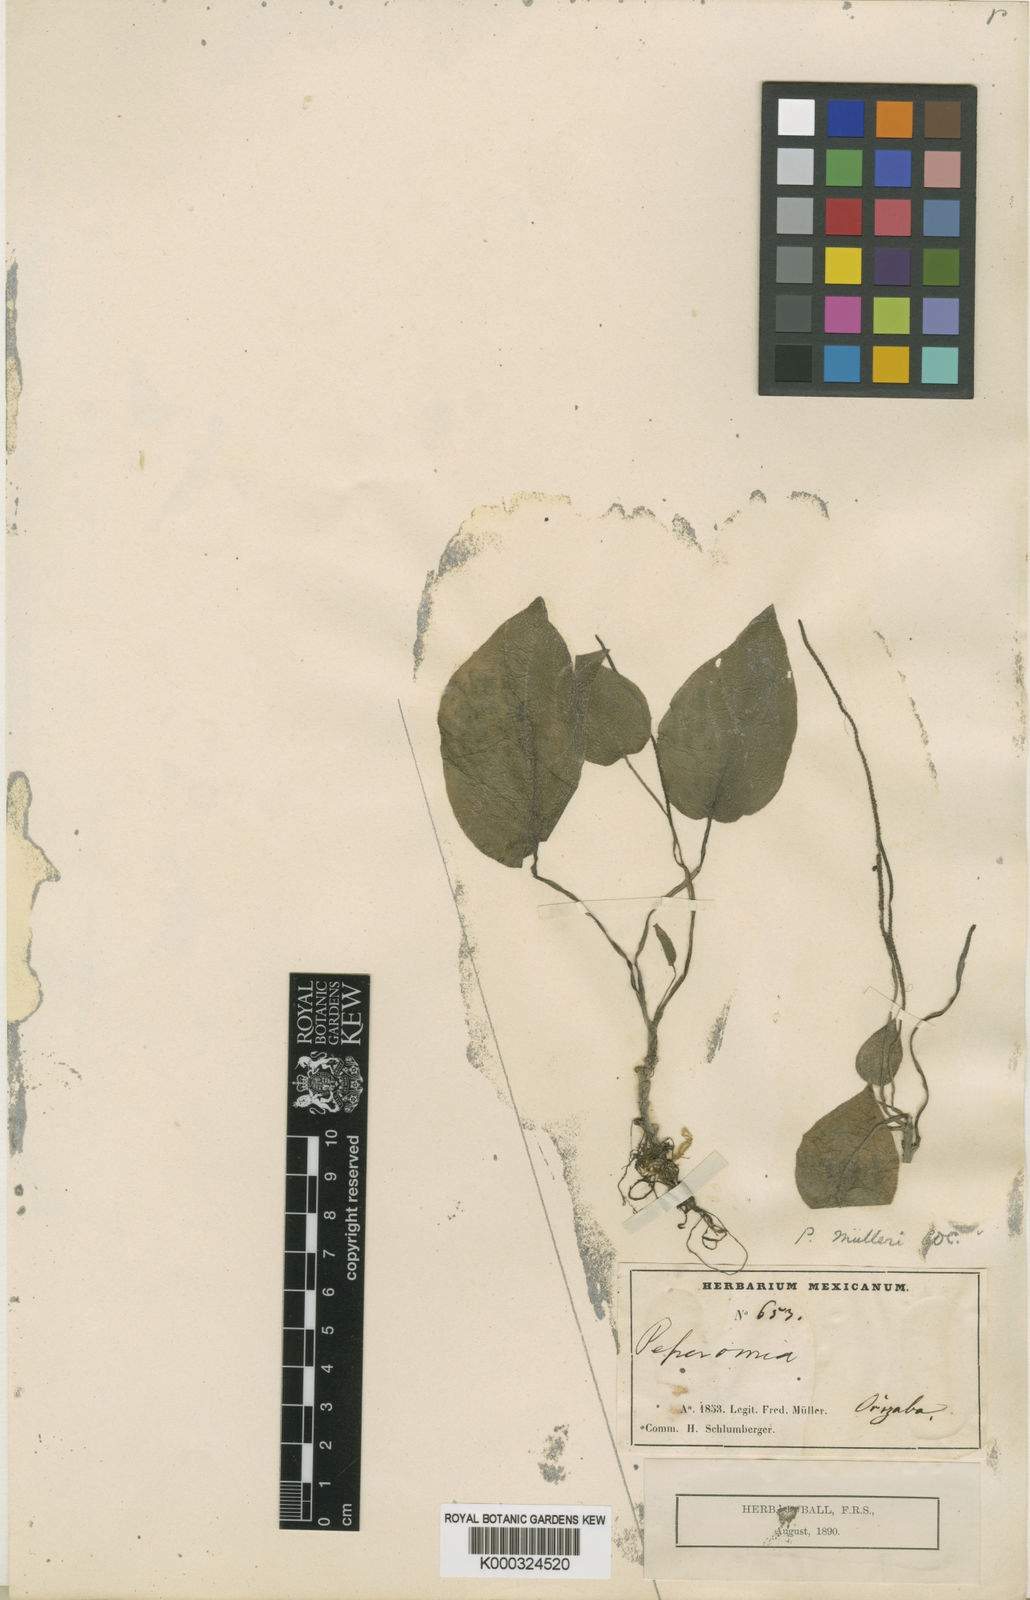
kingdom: Plantae
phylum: Tracheophyta
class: Magnoliopsida
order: Piperales
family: Piperaceae
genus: Peperomia
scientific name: Peperomia muelleri
